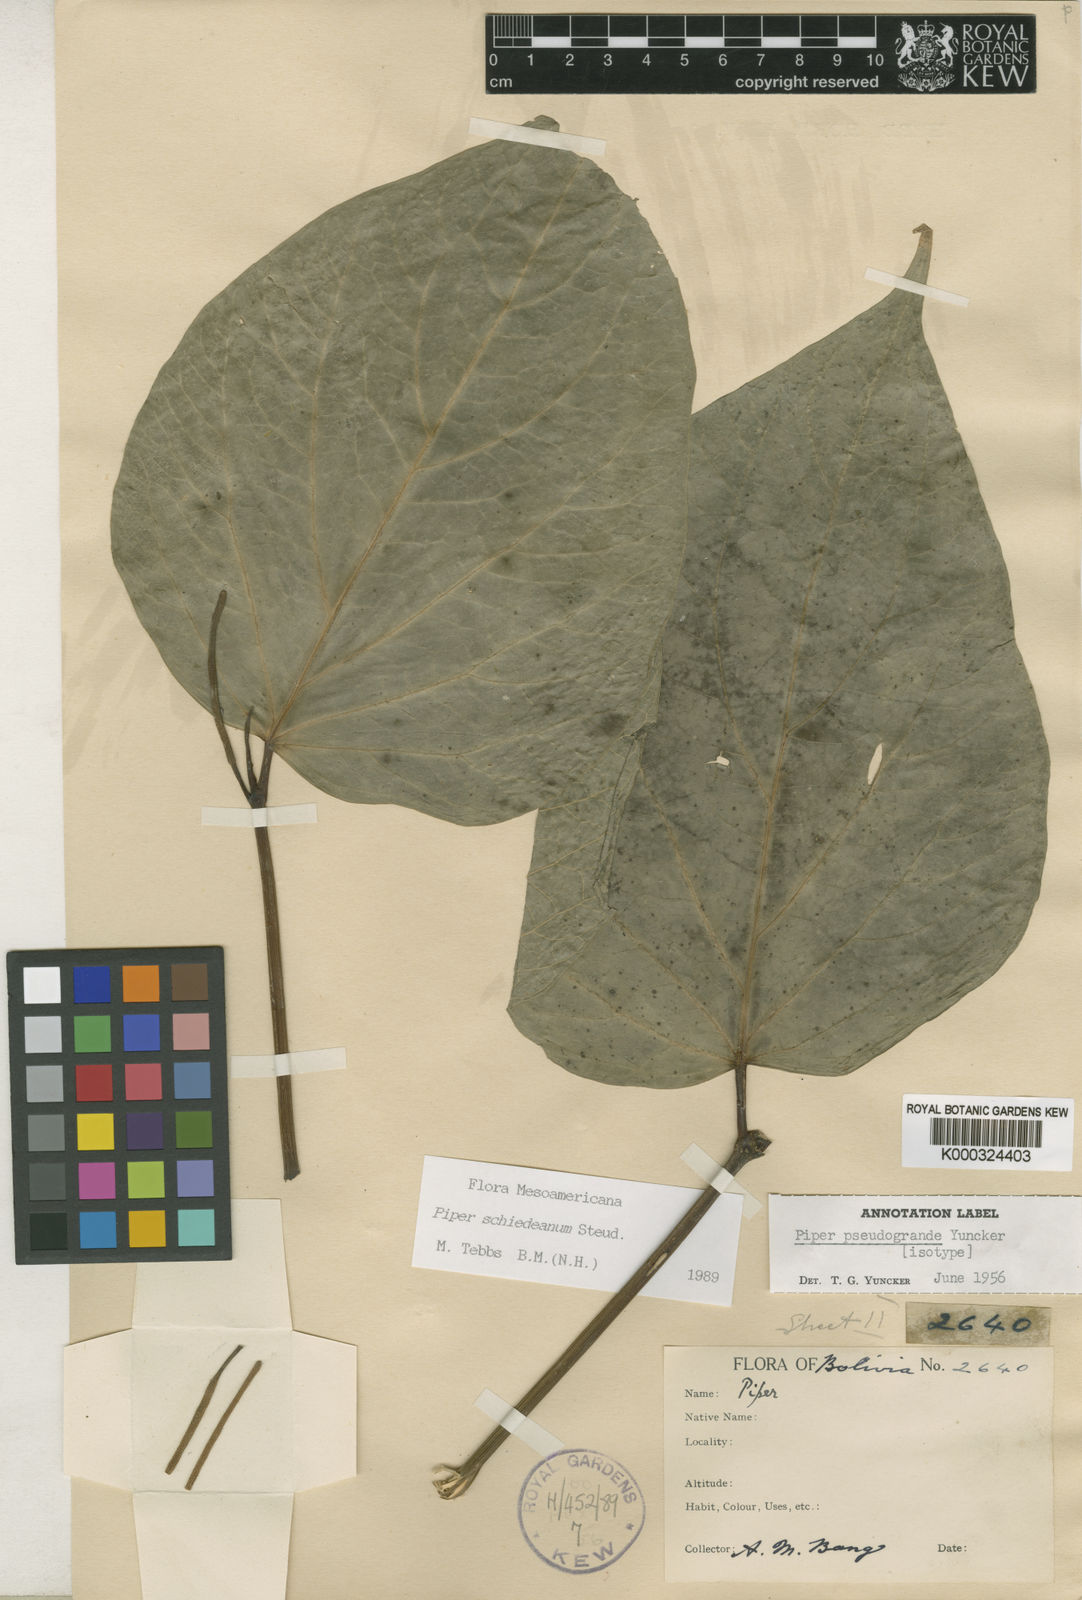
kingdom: Plantae
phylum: Tracheophyta
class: Magnoliopsida
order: Piperales
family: Piperaceae
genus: Piper
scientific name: Piper schiedeanum
